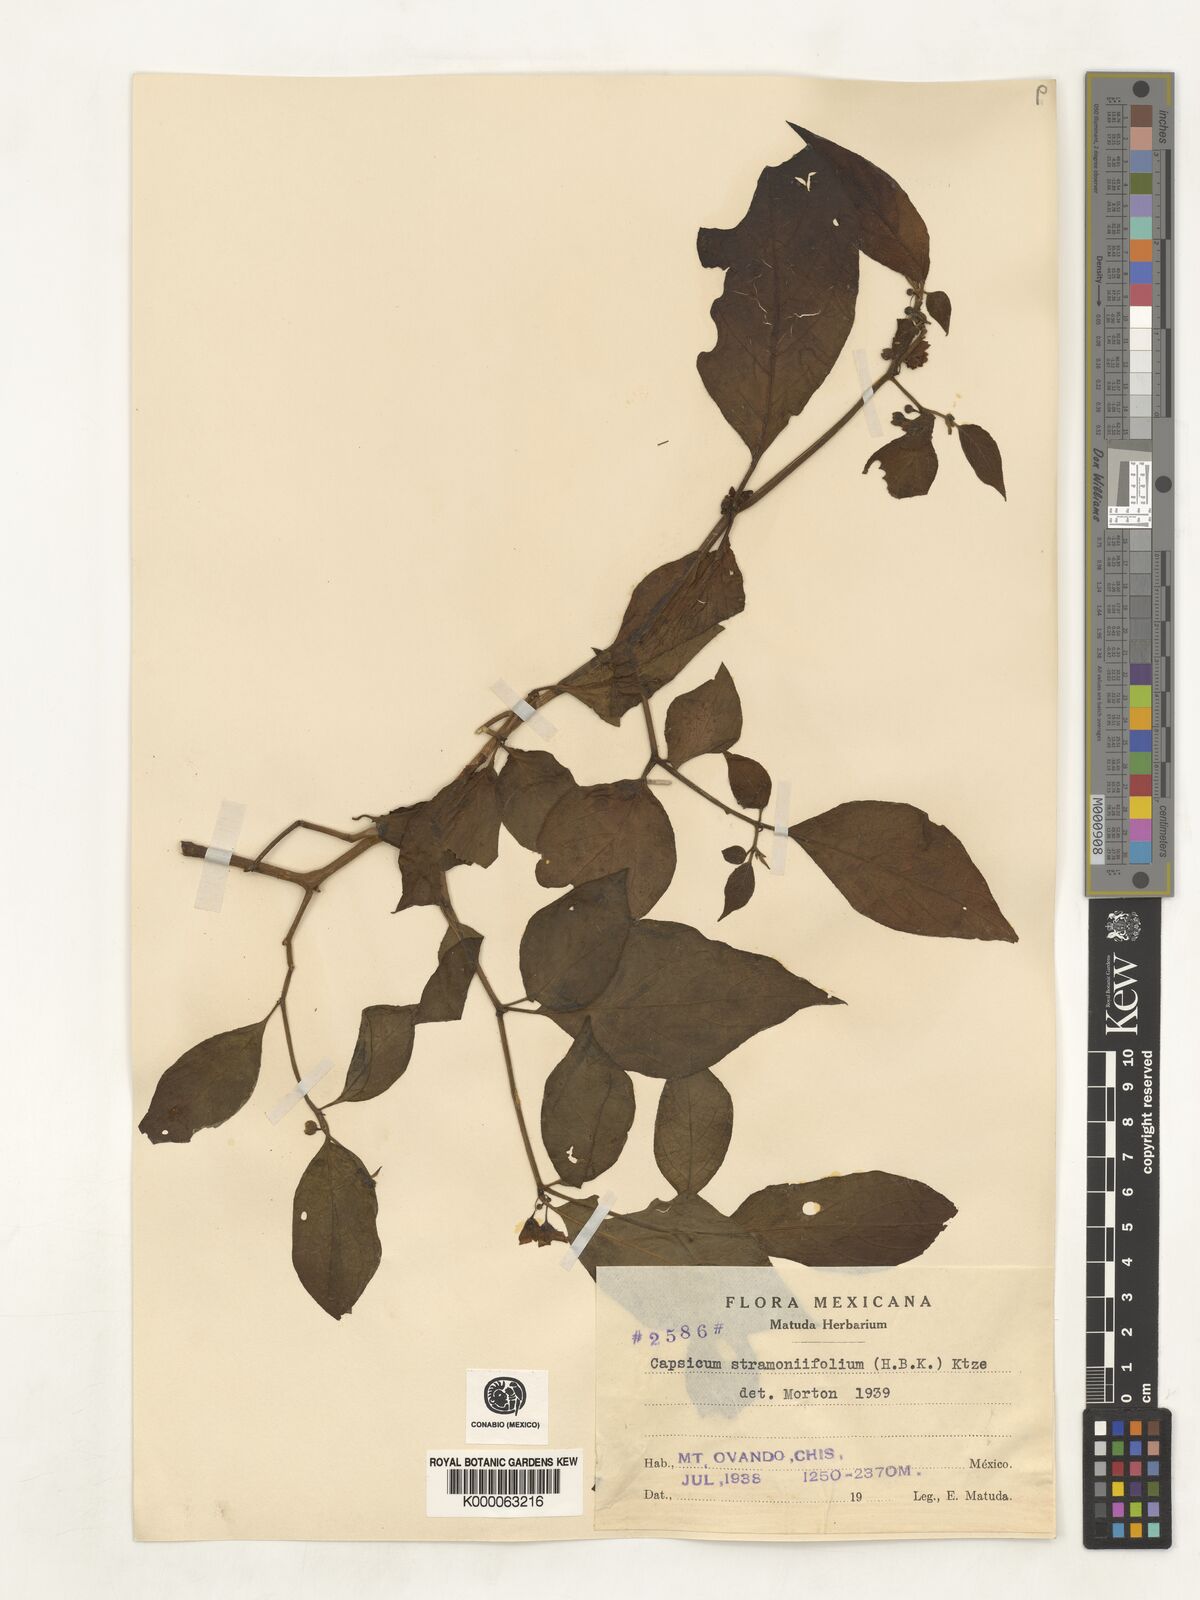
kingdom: Plantae
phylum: Tracheophyta
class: Magnoliopsida
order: Solanales
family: Solanaceae
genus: Brachistus
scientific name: Brachistus stramonifolius
